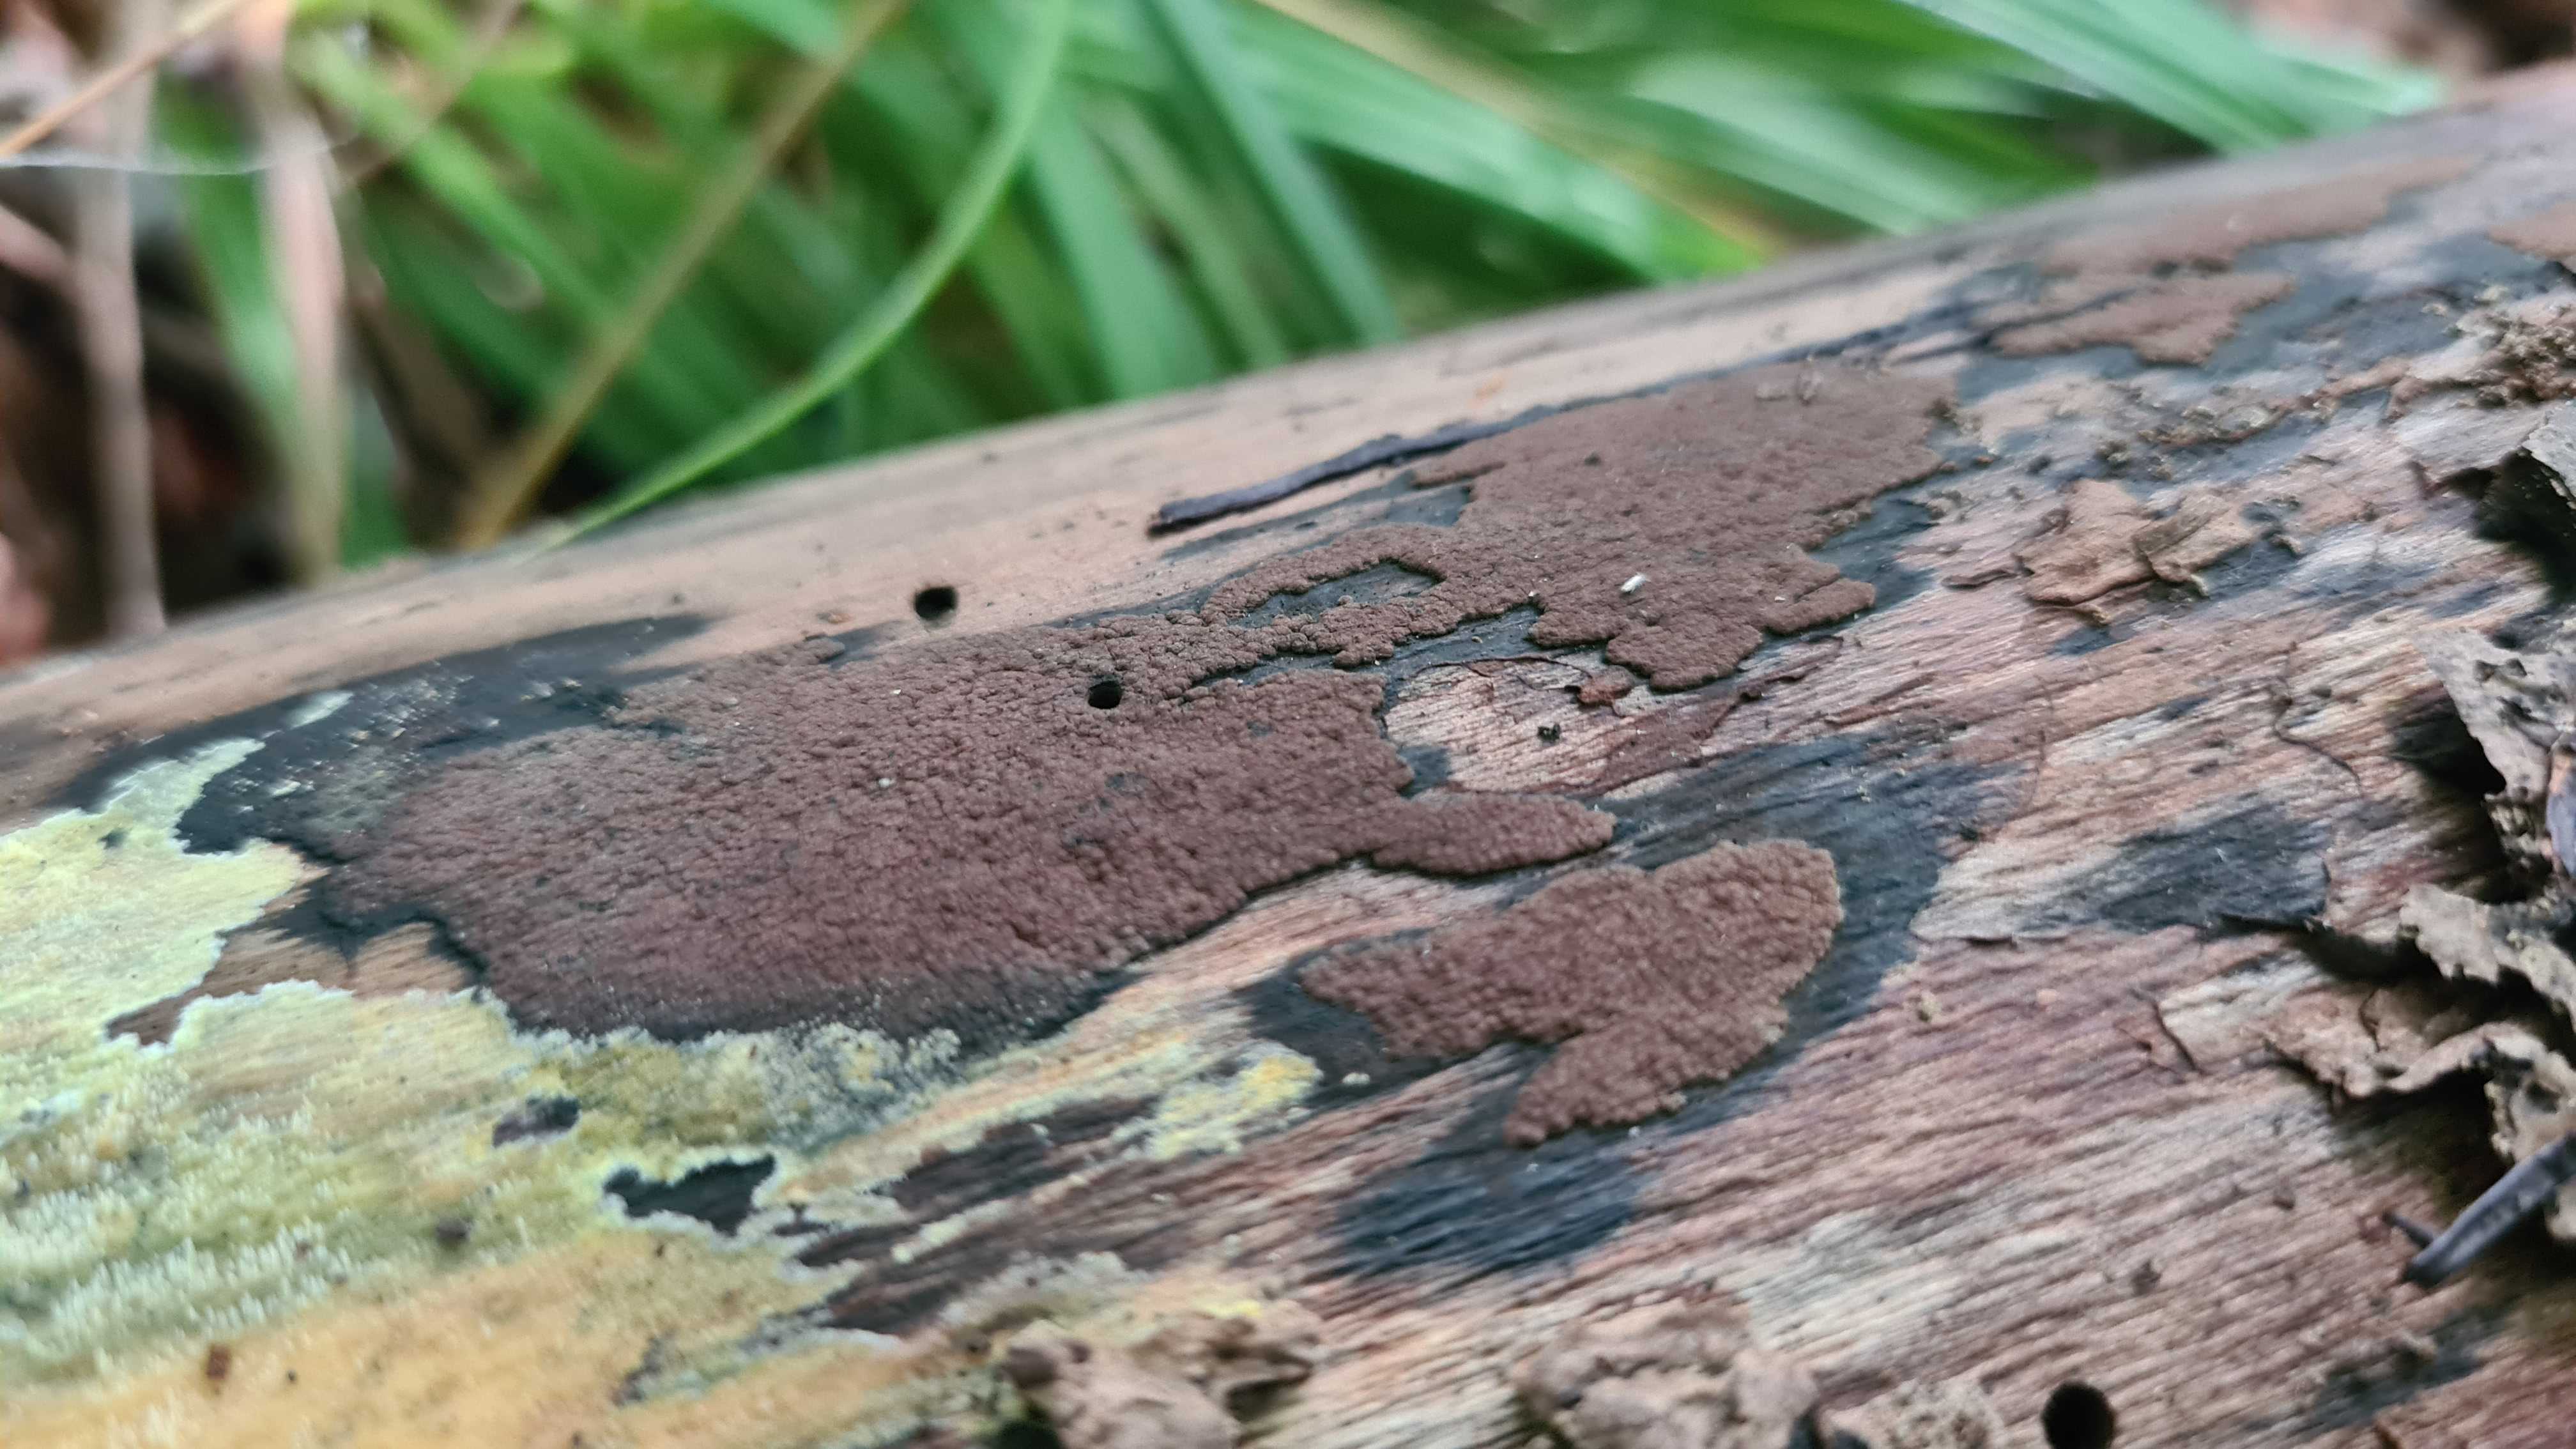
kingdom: Fungi
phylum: Ascomycota
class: Sordariomycetes
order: Xylariales
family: Hypoxylaceae
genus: Hypoxylon
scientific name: Hypoxylon petriniae
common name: nedsænket kulbær
